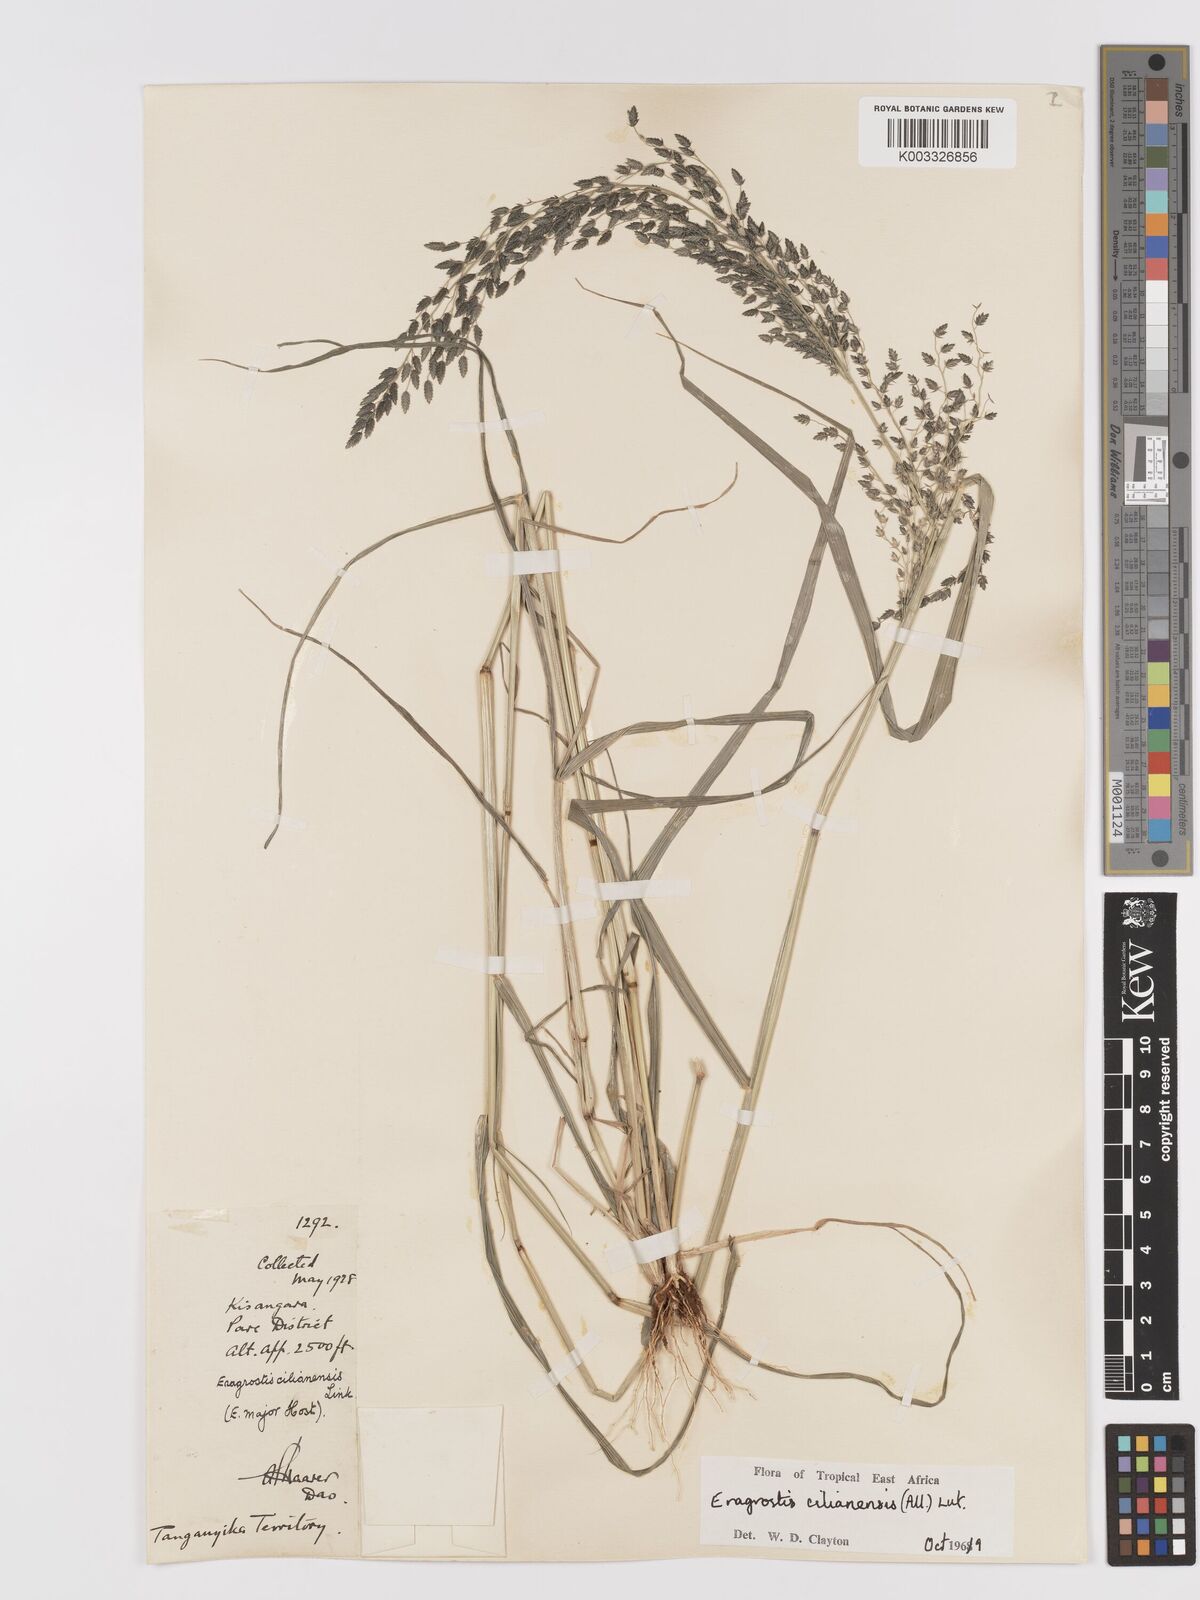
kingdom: Plantae
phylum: Tracheophyta
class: Liliopsida
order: Poales
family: Poaceae
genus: Eragrostis
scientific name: Eragrostis cilianensis
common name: Stinkgrass
